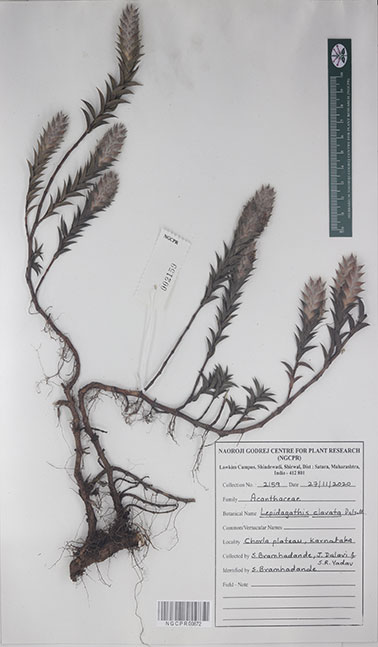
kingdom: Plantae
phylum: Tracheophyta
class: Magnoliopsida
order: Lamiales
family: Acanthaceae
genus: Lepidagathis
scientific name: Lepidagathis clavata
